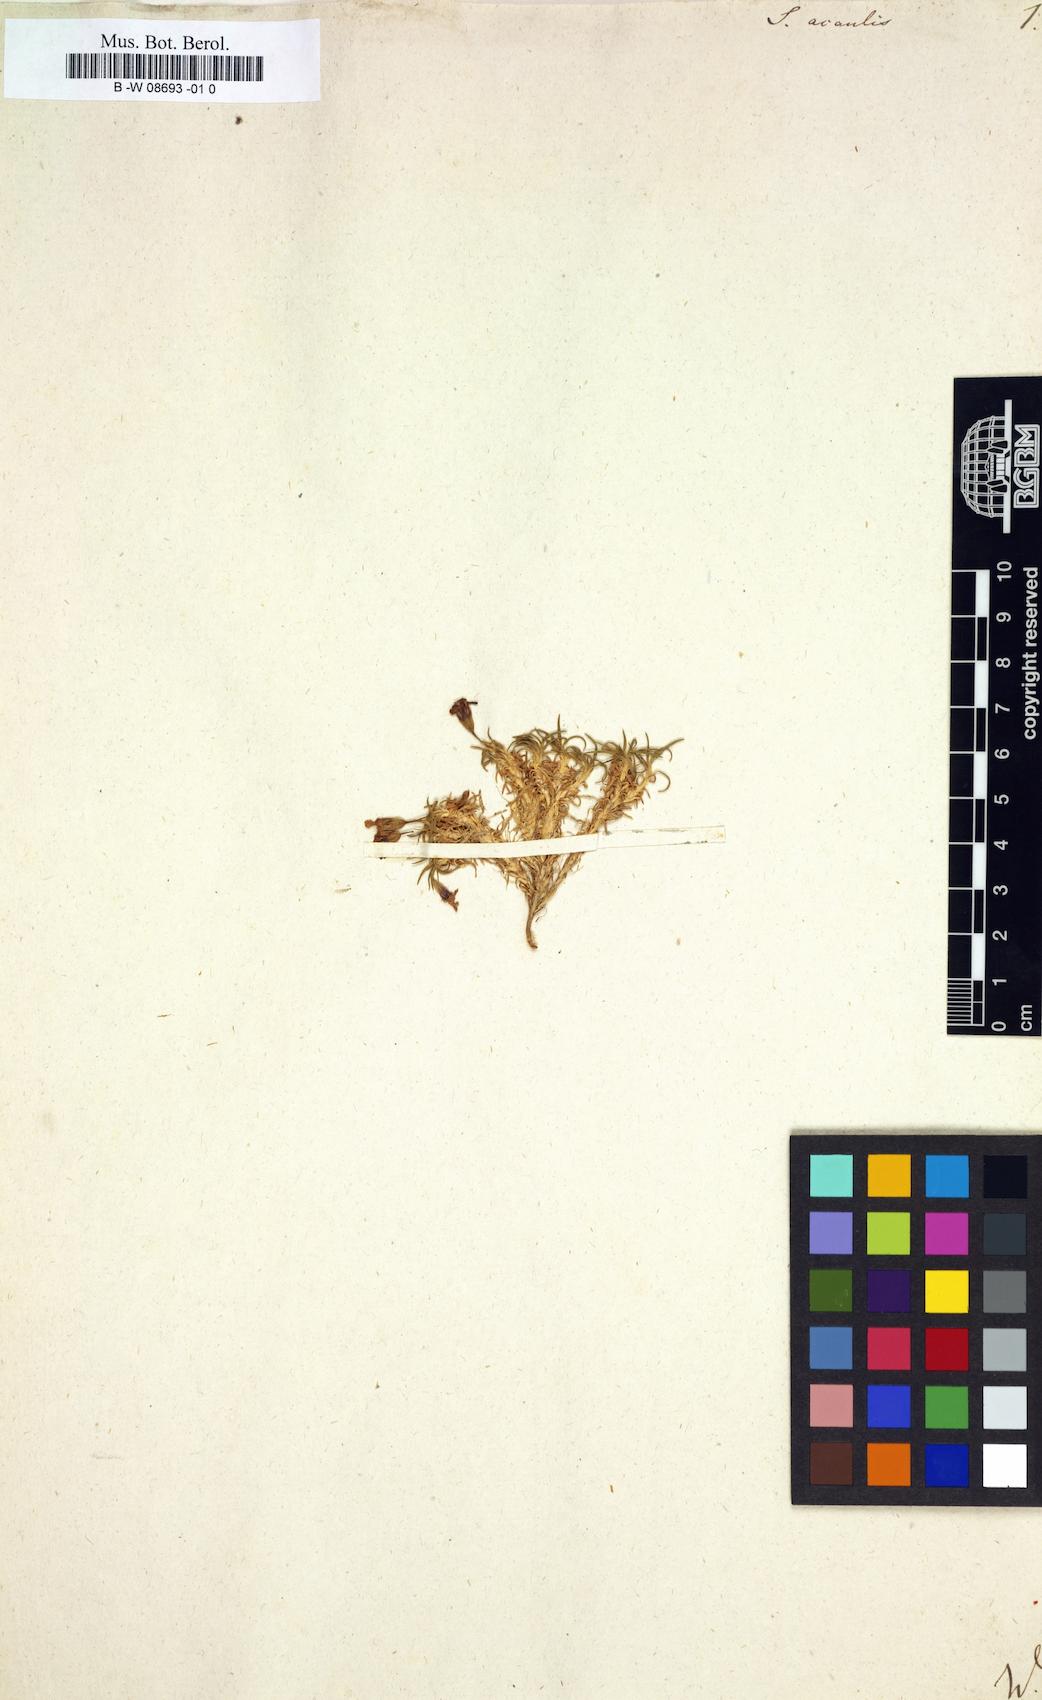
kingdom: Plantae
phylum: Tracheophyta
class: Magnoliopsida
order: Caryophyllales
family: Caryophyllaceae
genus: Silene
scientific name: Silene acaulis
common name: Moss campion
